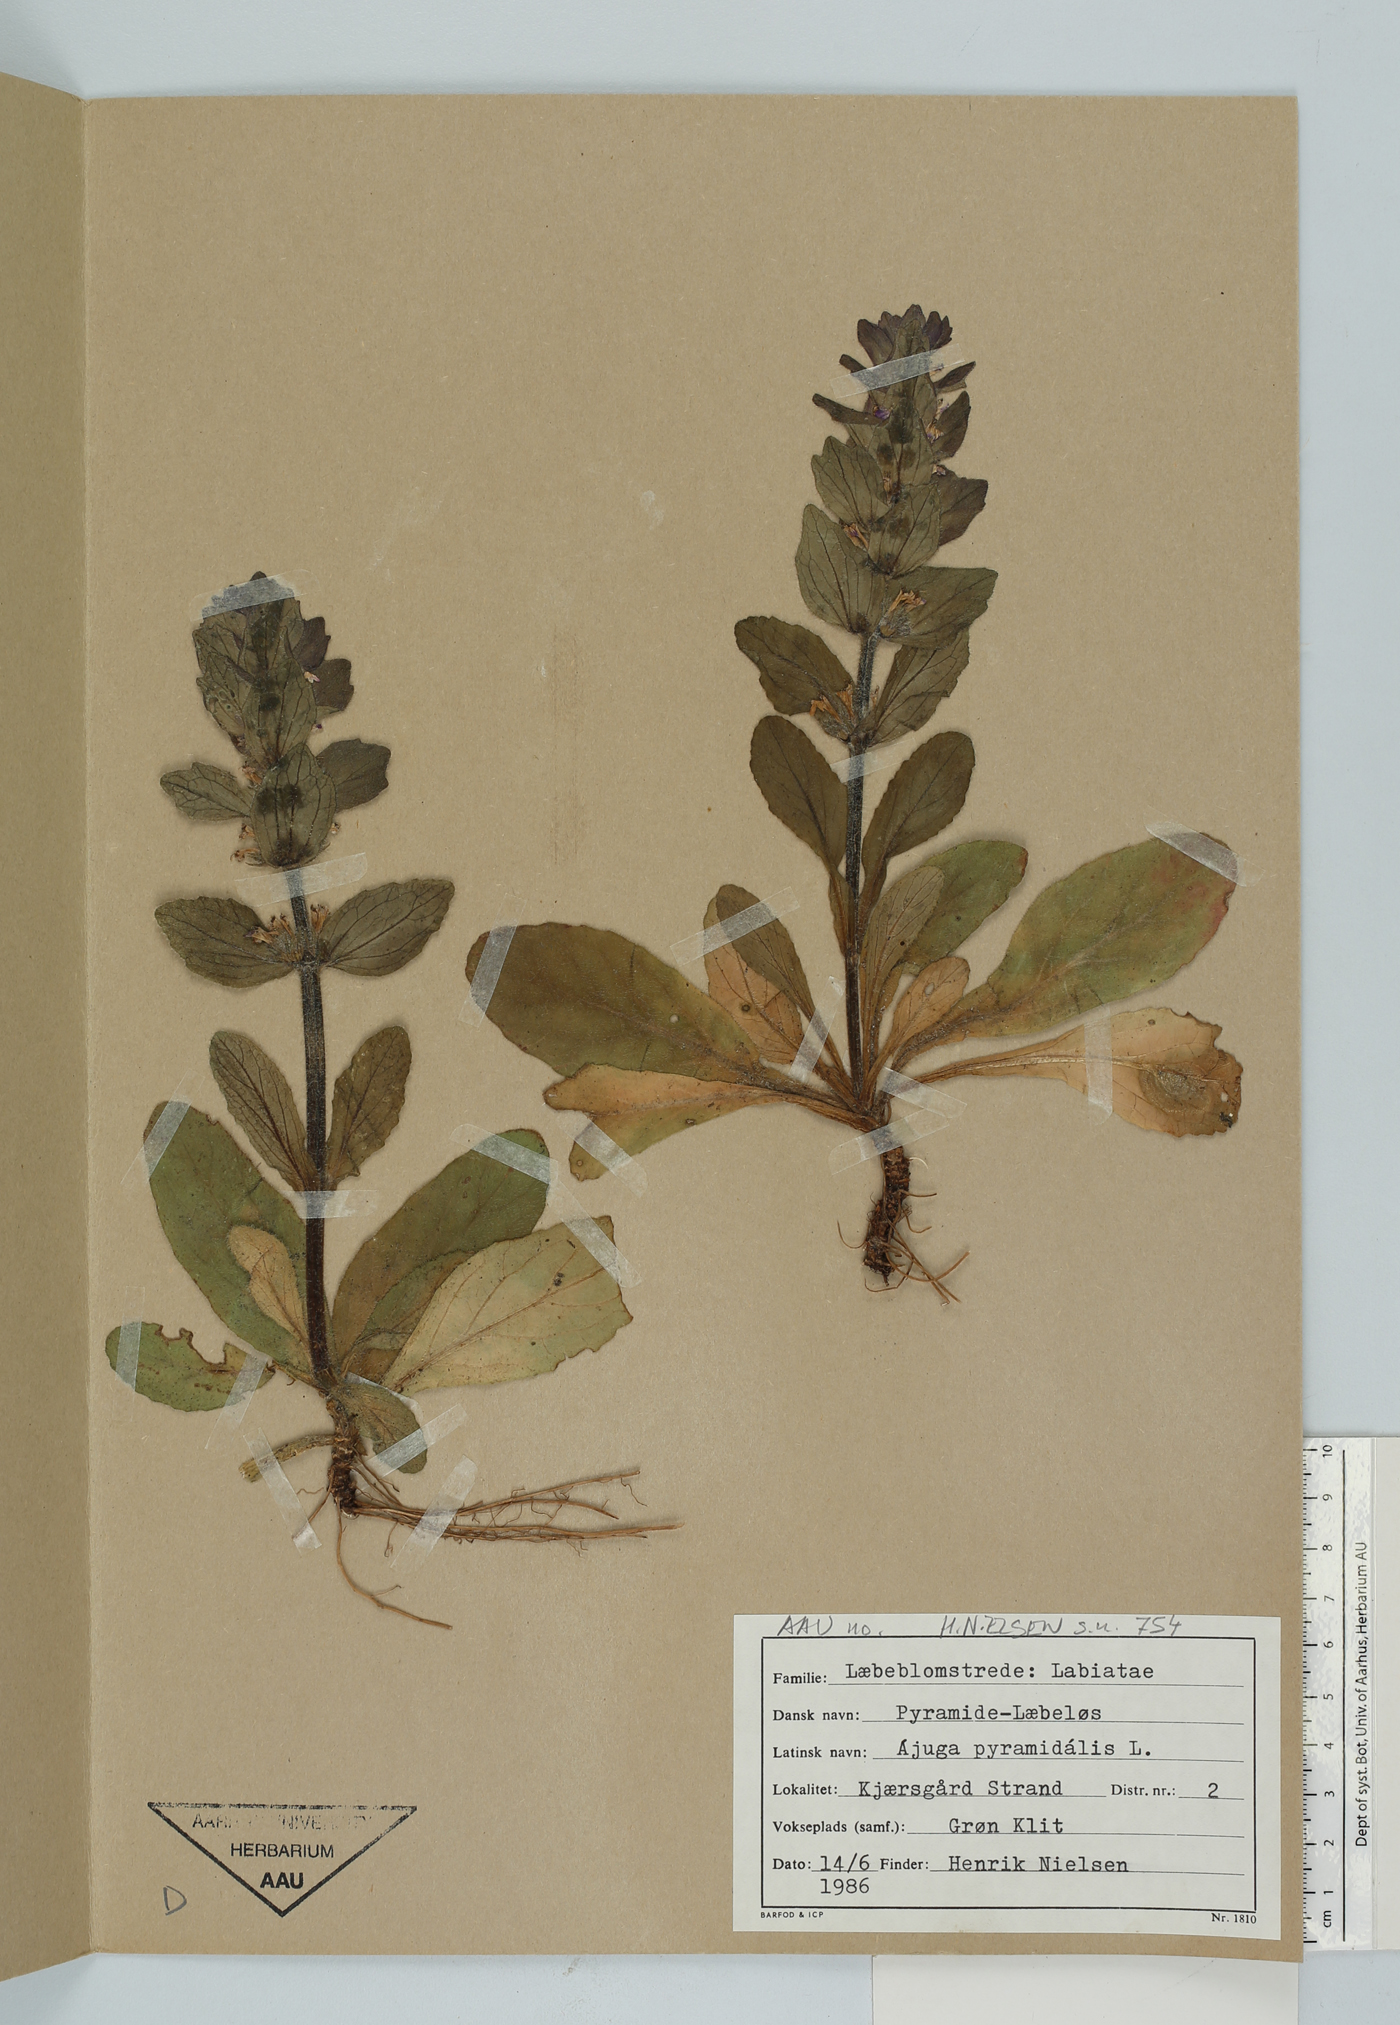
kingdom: Plantae
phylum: Tracheophyta
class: Magnoliopsida
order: Lamiales
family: Lamiaceae
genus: Ajuga
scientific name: Ajuga pyramidalis
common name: Pyramid bugle
